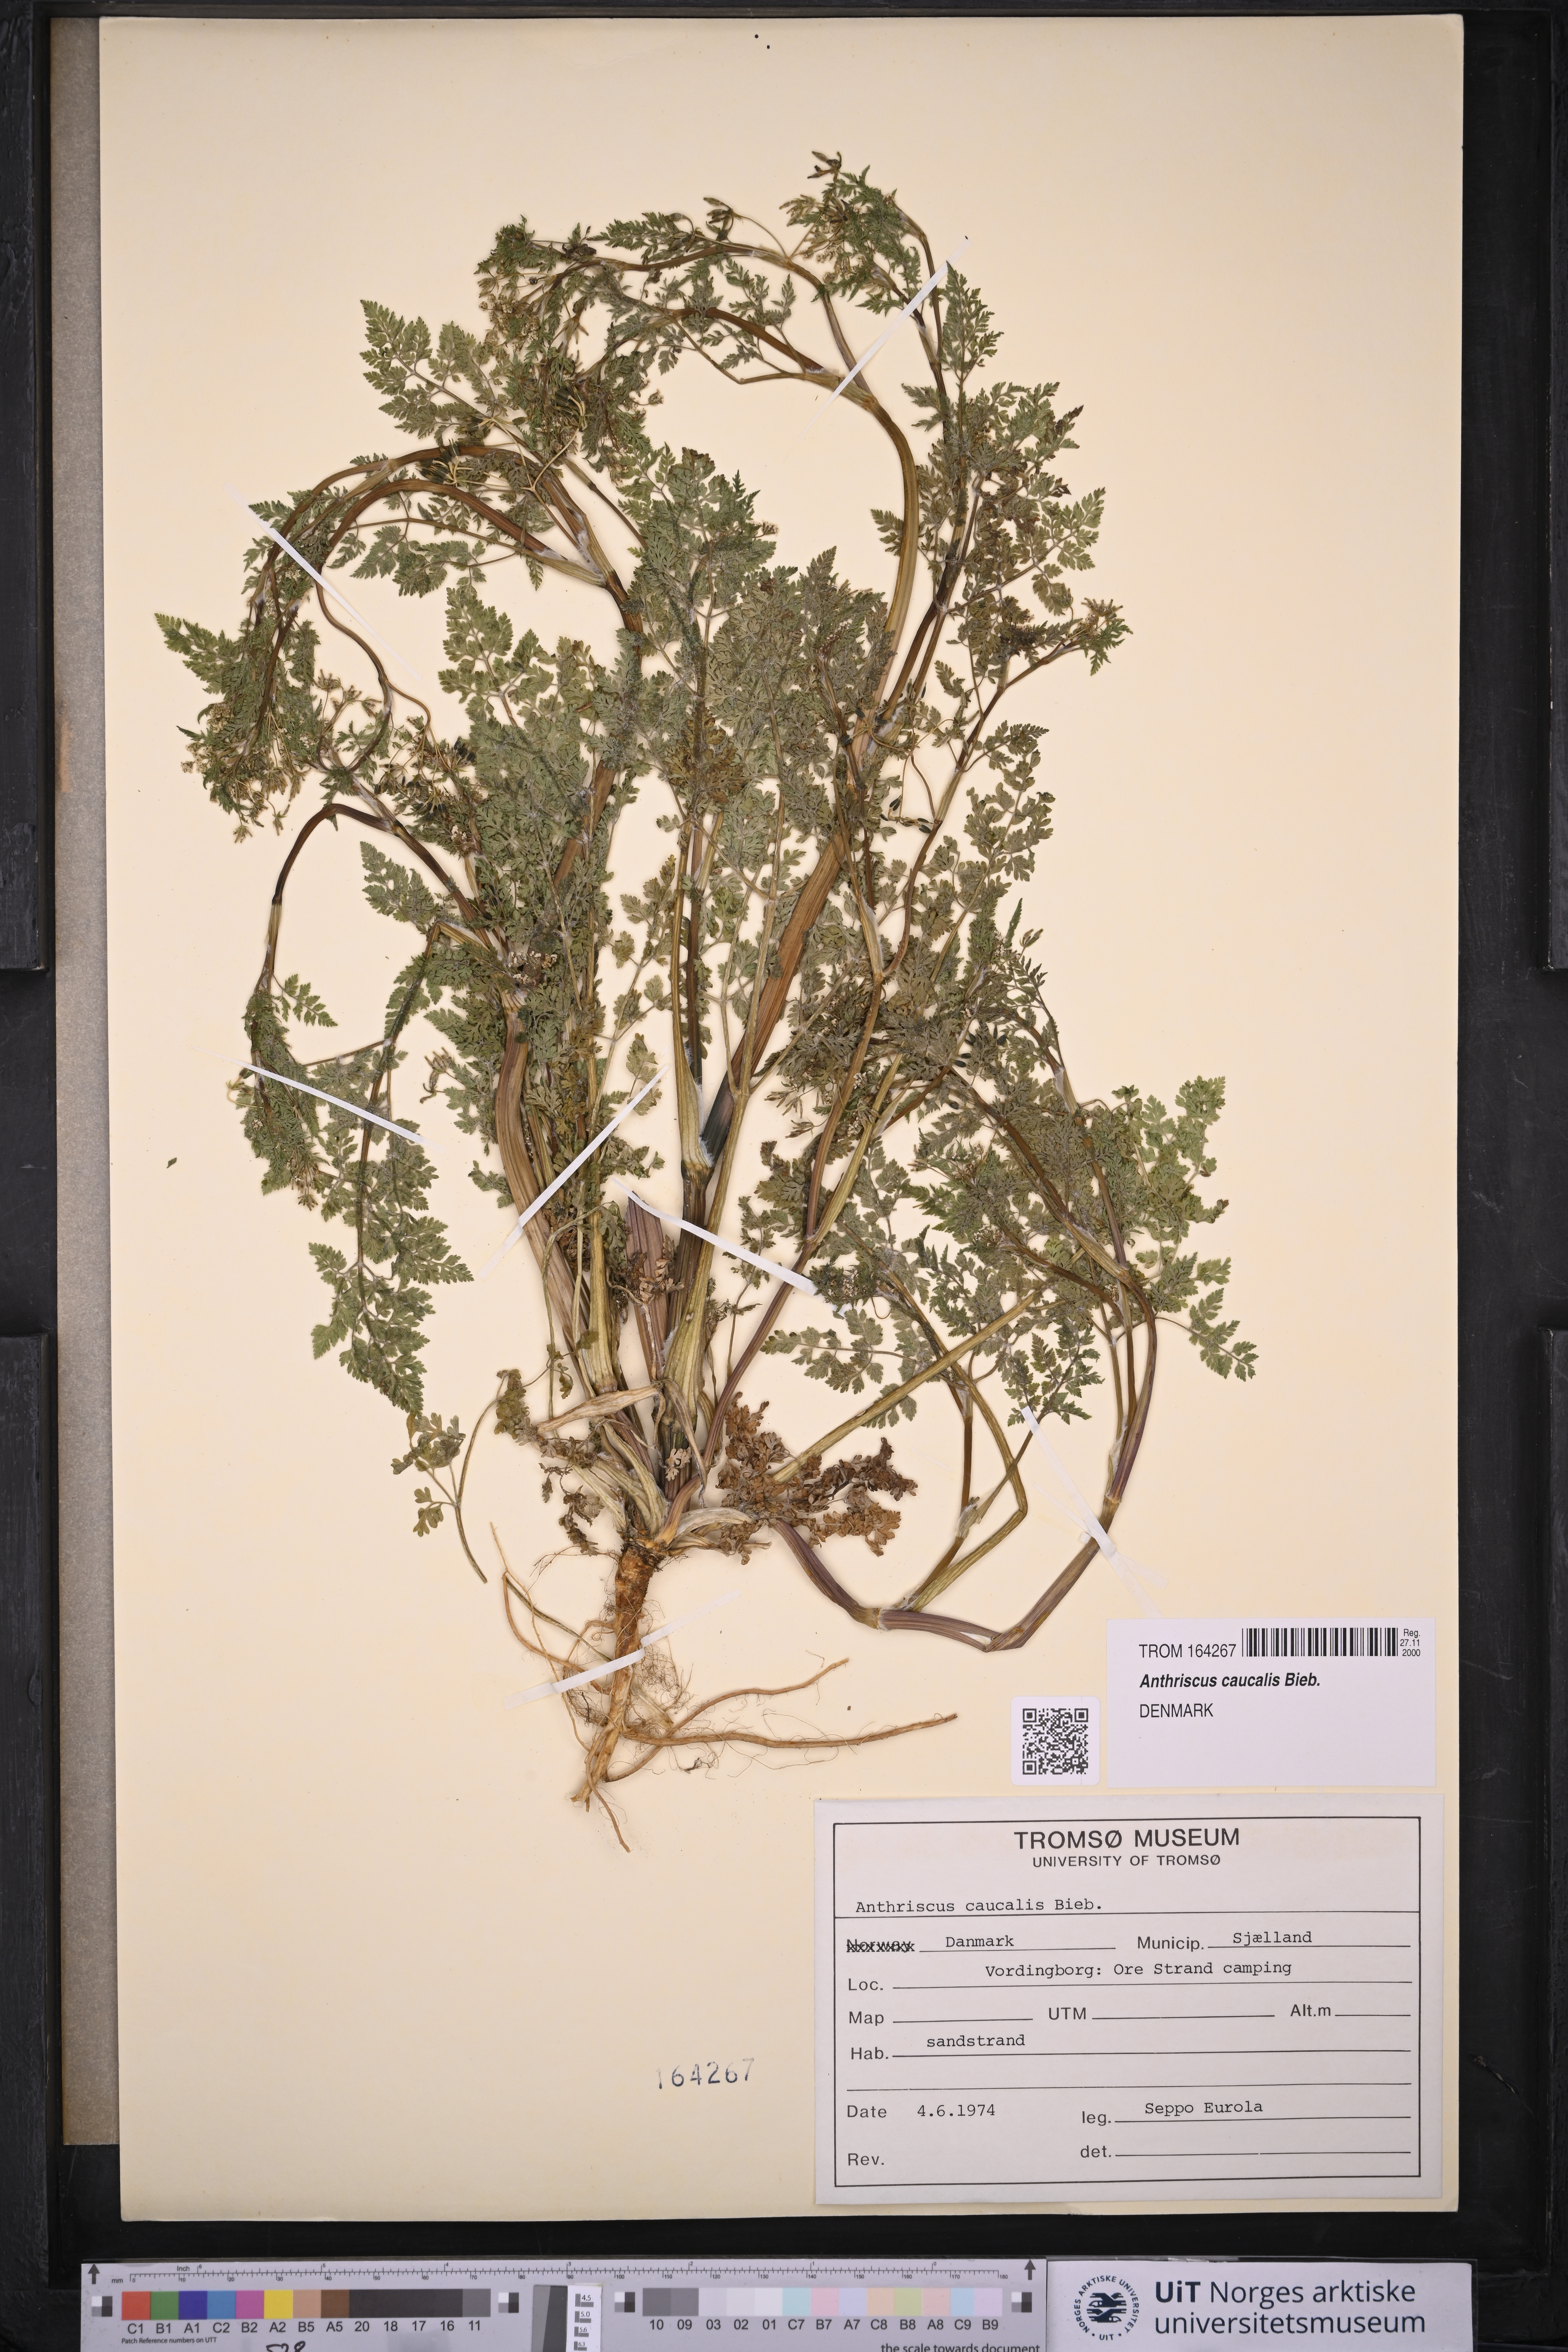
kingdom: Plantae
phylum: Tracheophyta
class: Magnoliopsida
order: Apiales
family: Apiaceae
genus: Anthriscus
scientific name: Anthriscus caucalis
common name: Bur chervil
